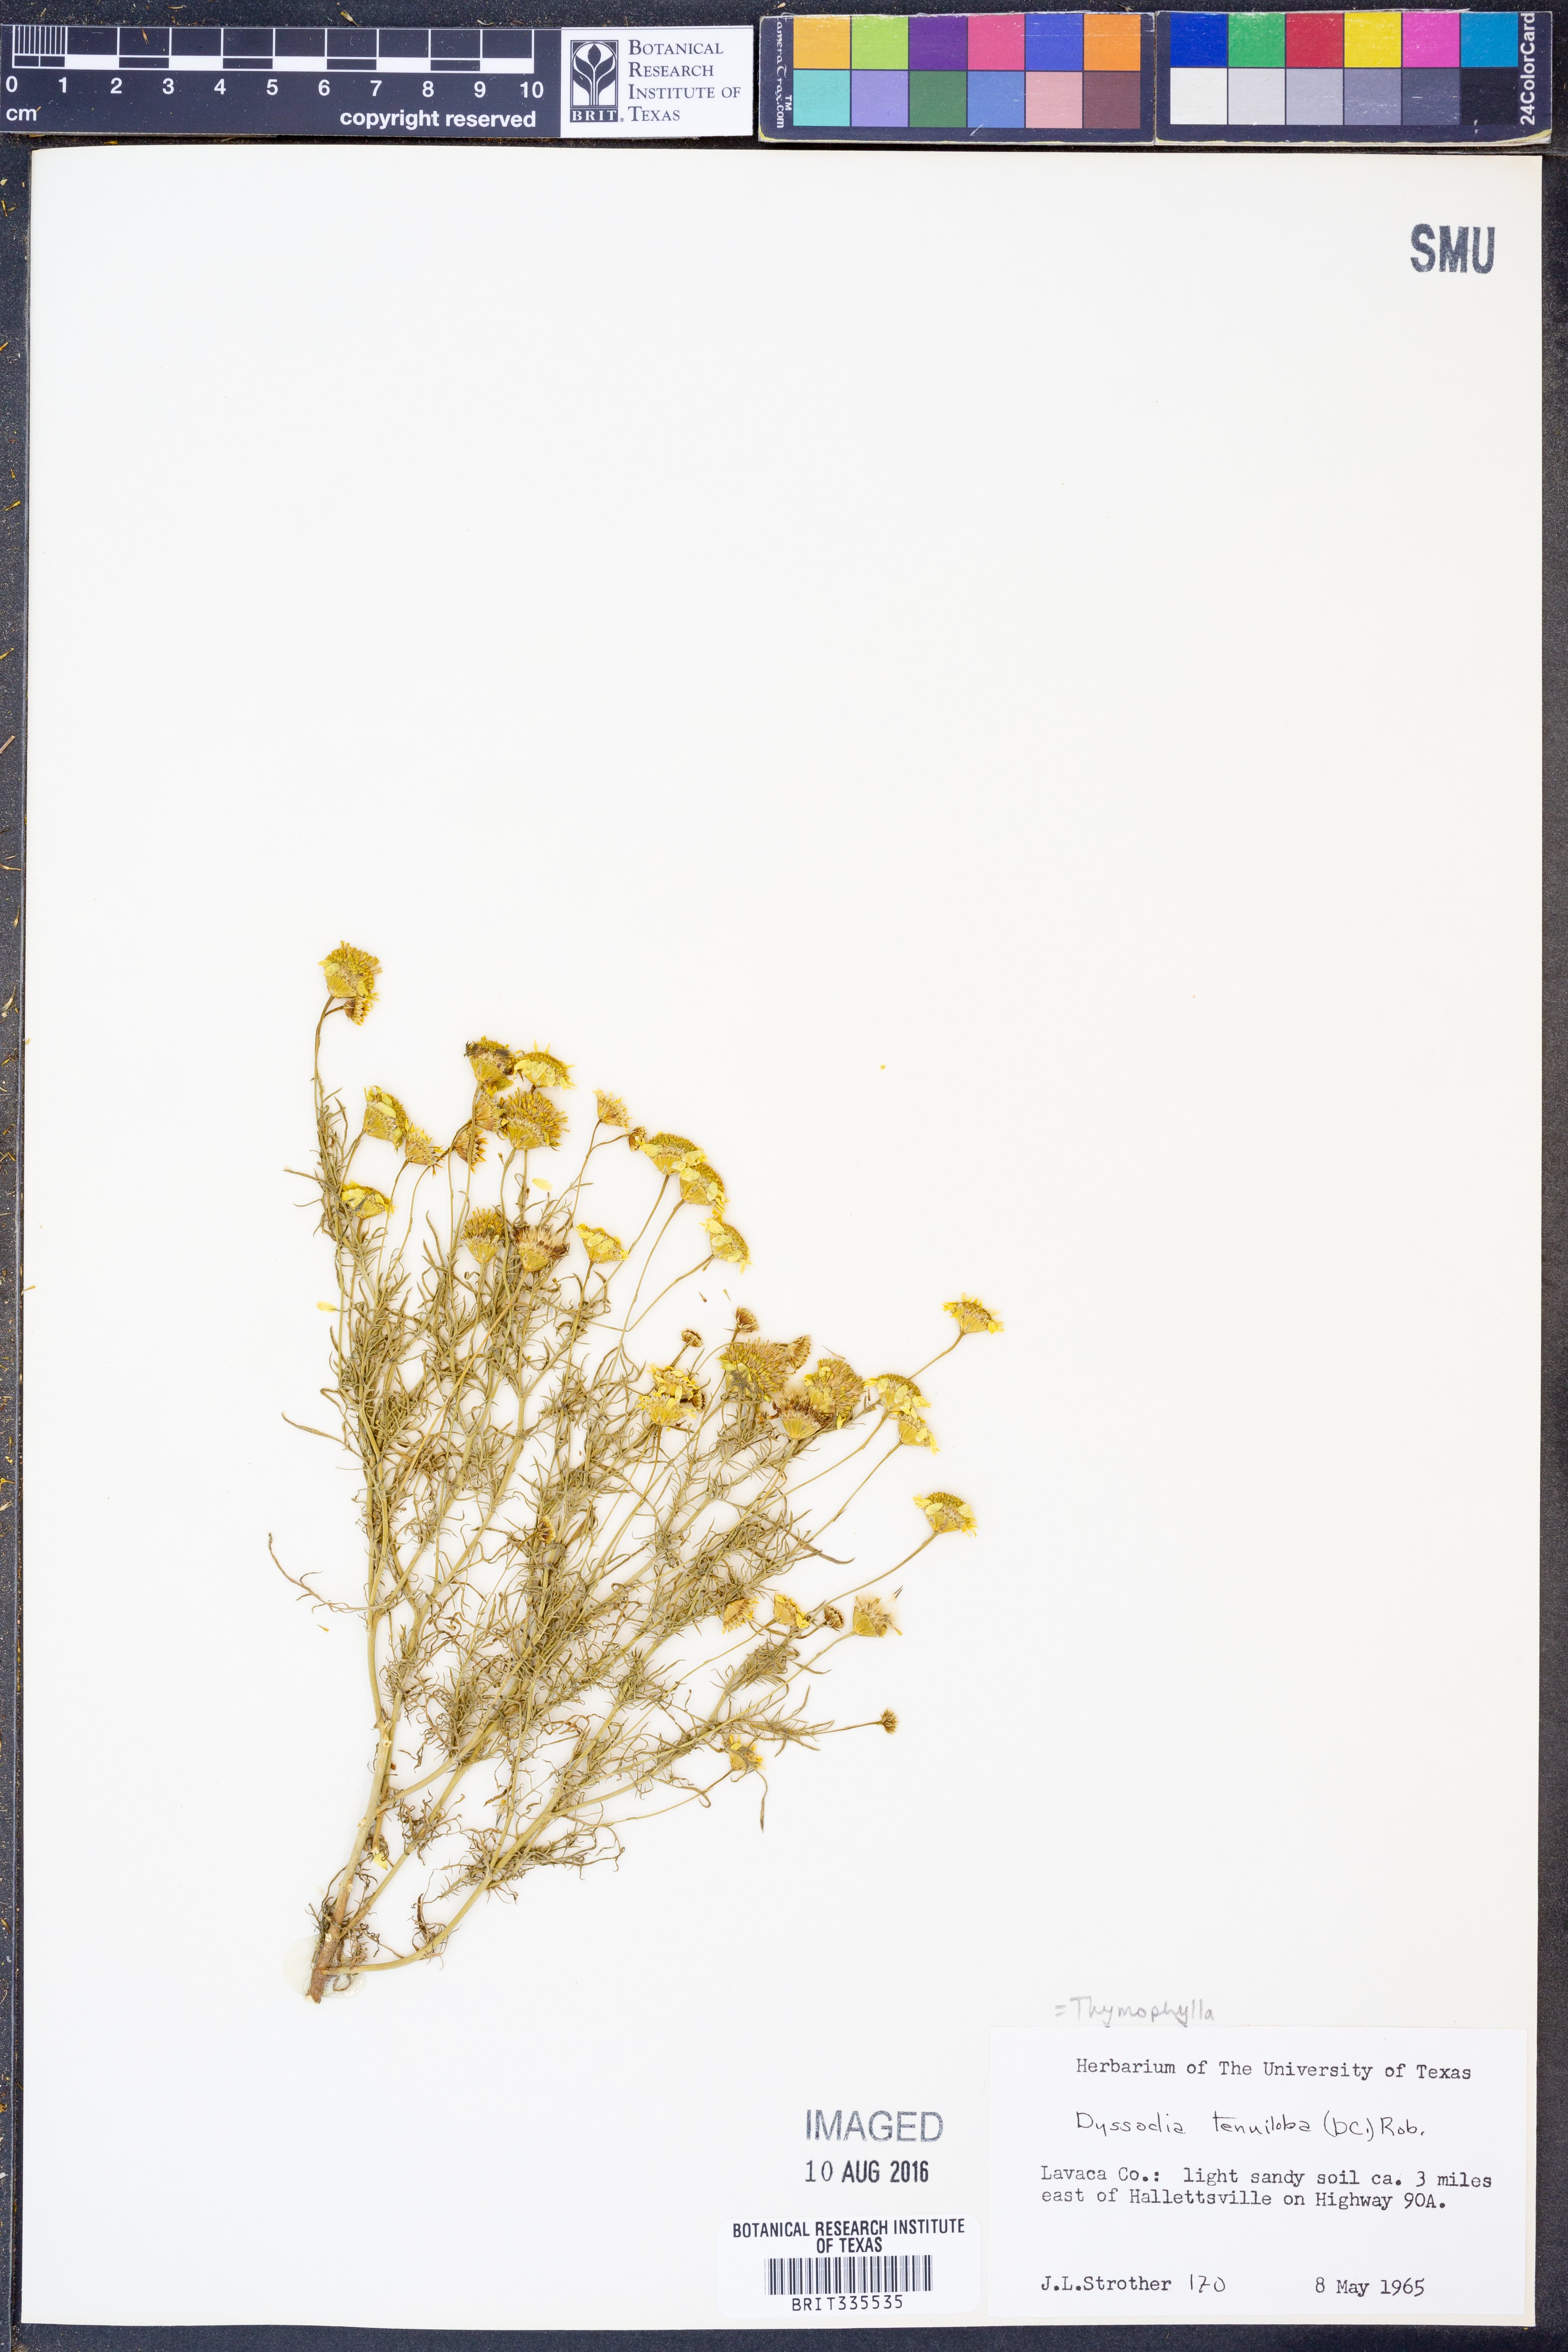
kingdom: Plantae
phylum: Tracheophyta
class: Magnoliopsida
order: Asterales
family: Asteraceae
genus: Thymophylla
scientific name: Thymophylla tenuiloba
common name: Dahlberg's daisy
